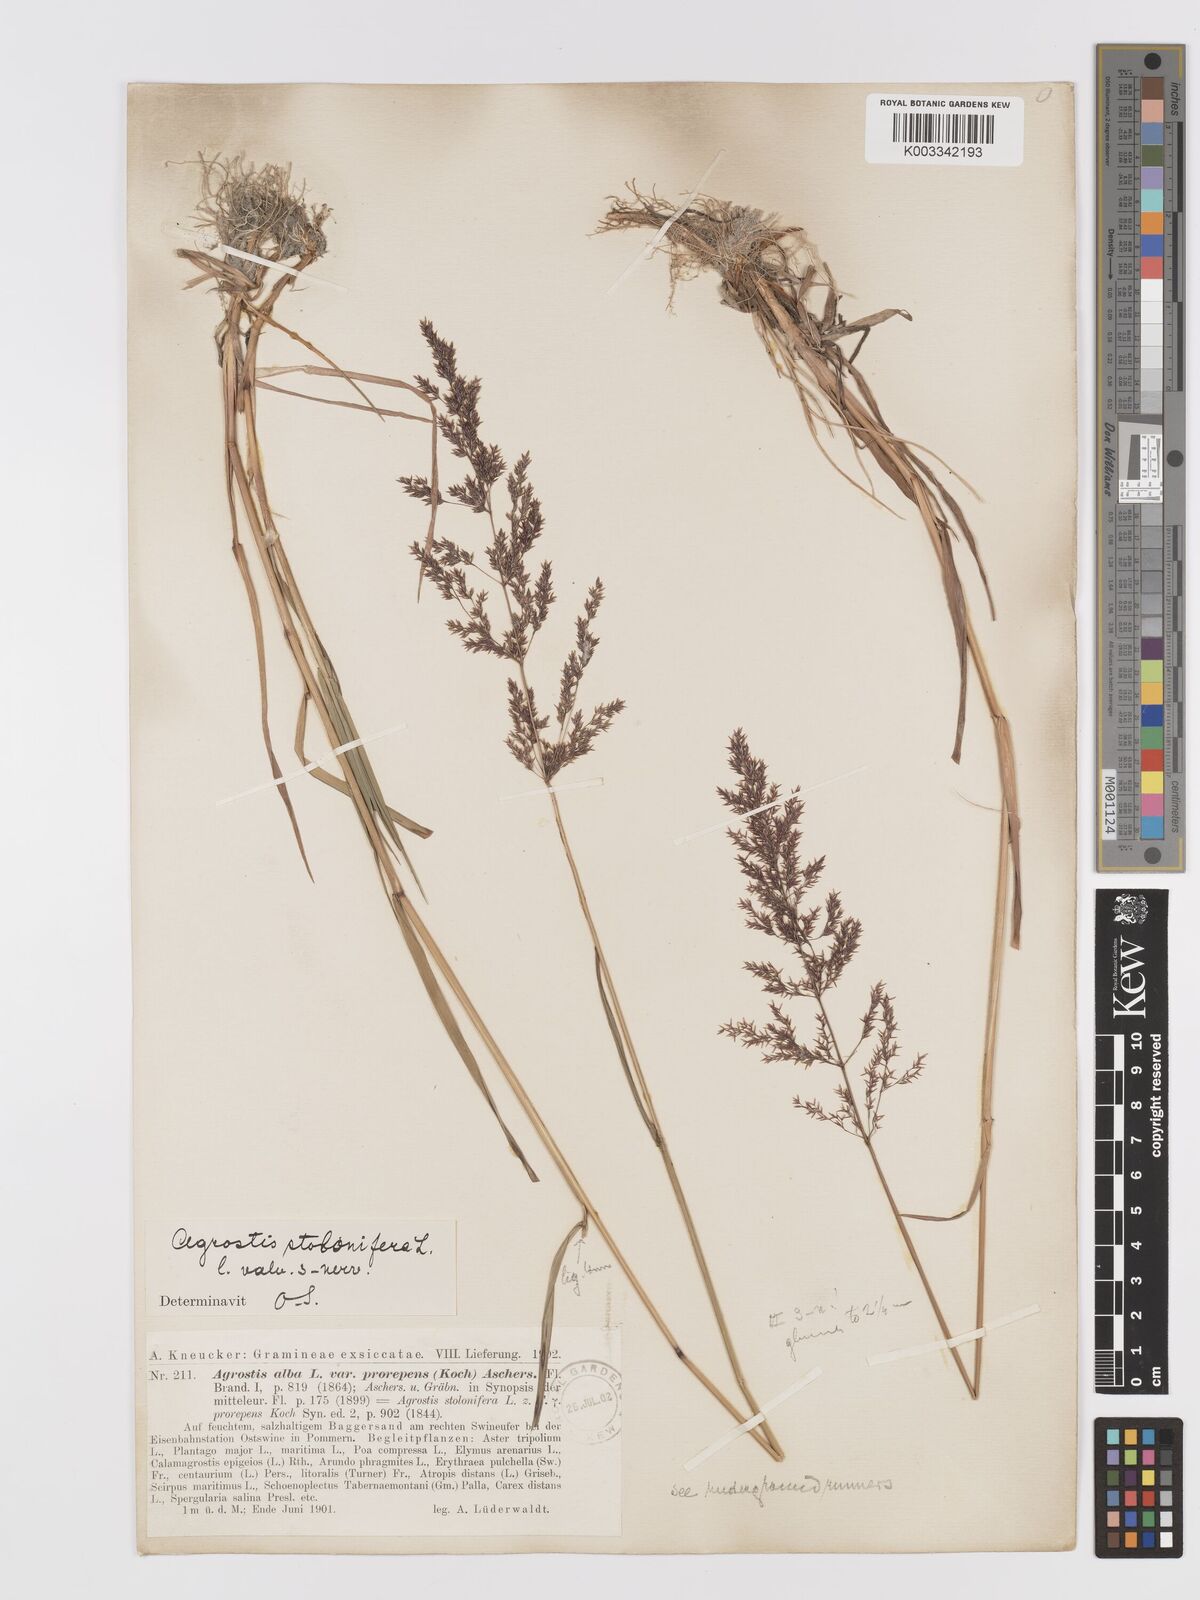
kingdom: Plantae
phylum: Tracheophyta
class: Liliopsida
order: Poales
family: Poaceae
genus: Agrostis
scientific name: Agrostis stolonifera
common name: Creeping bentgrass
